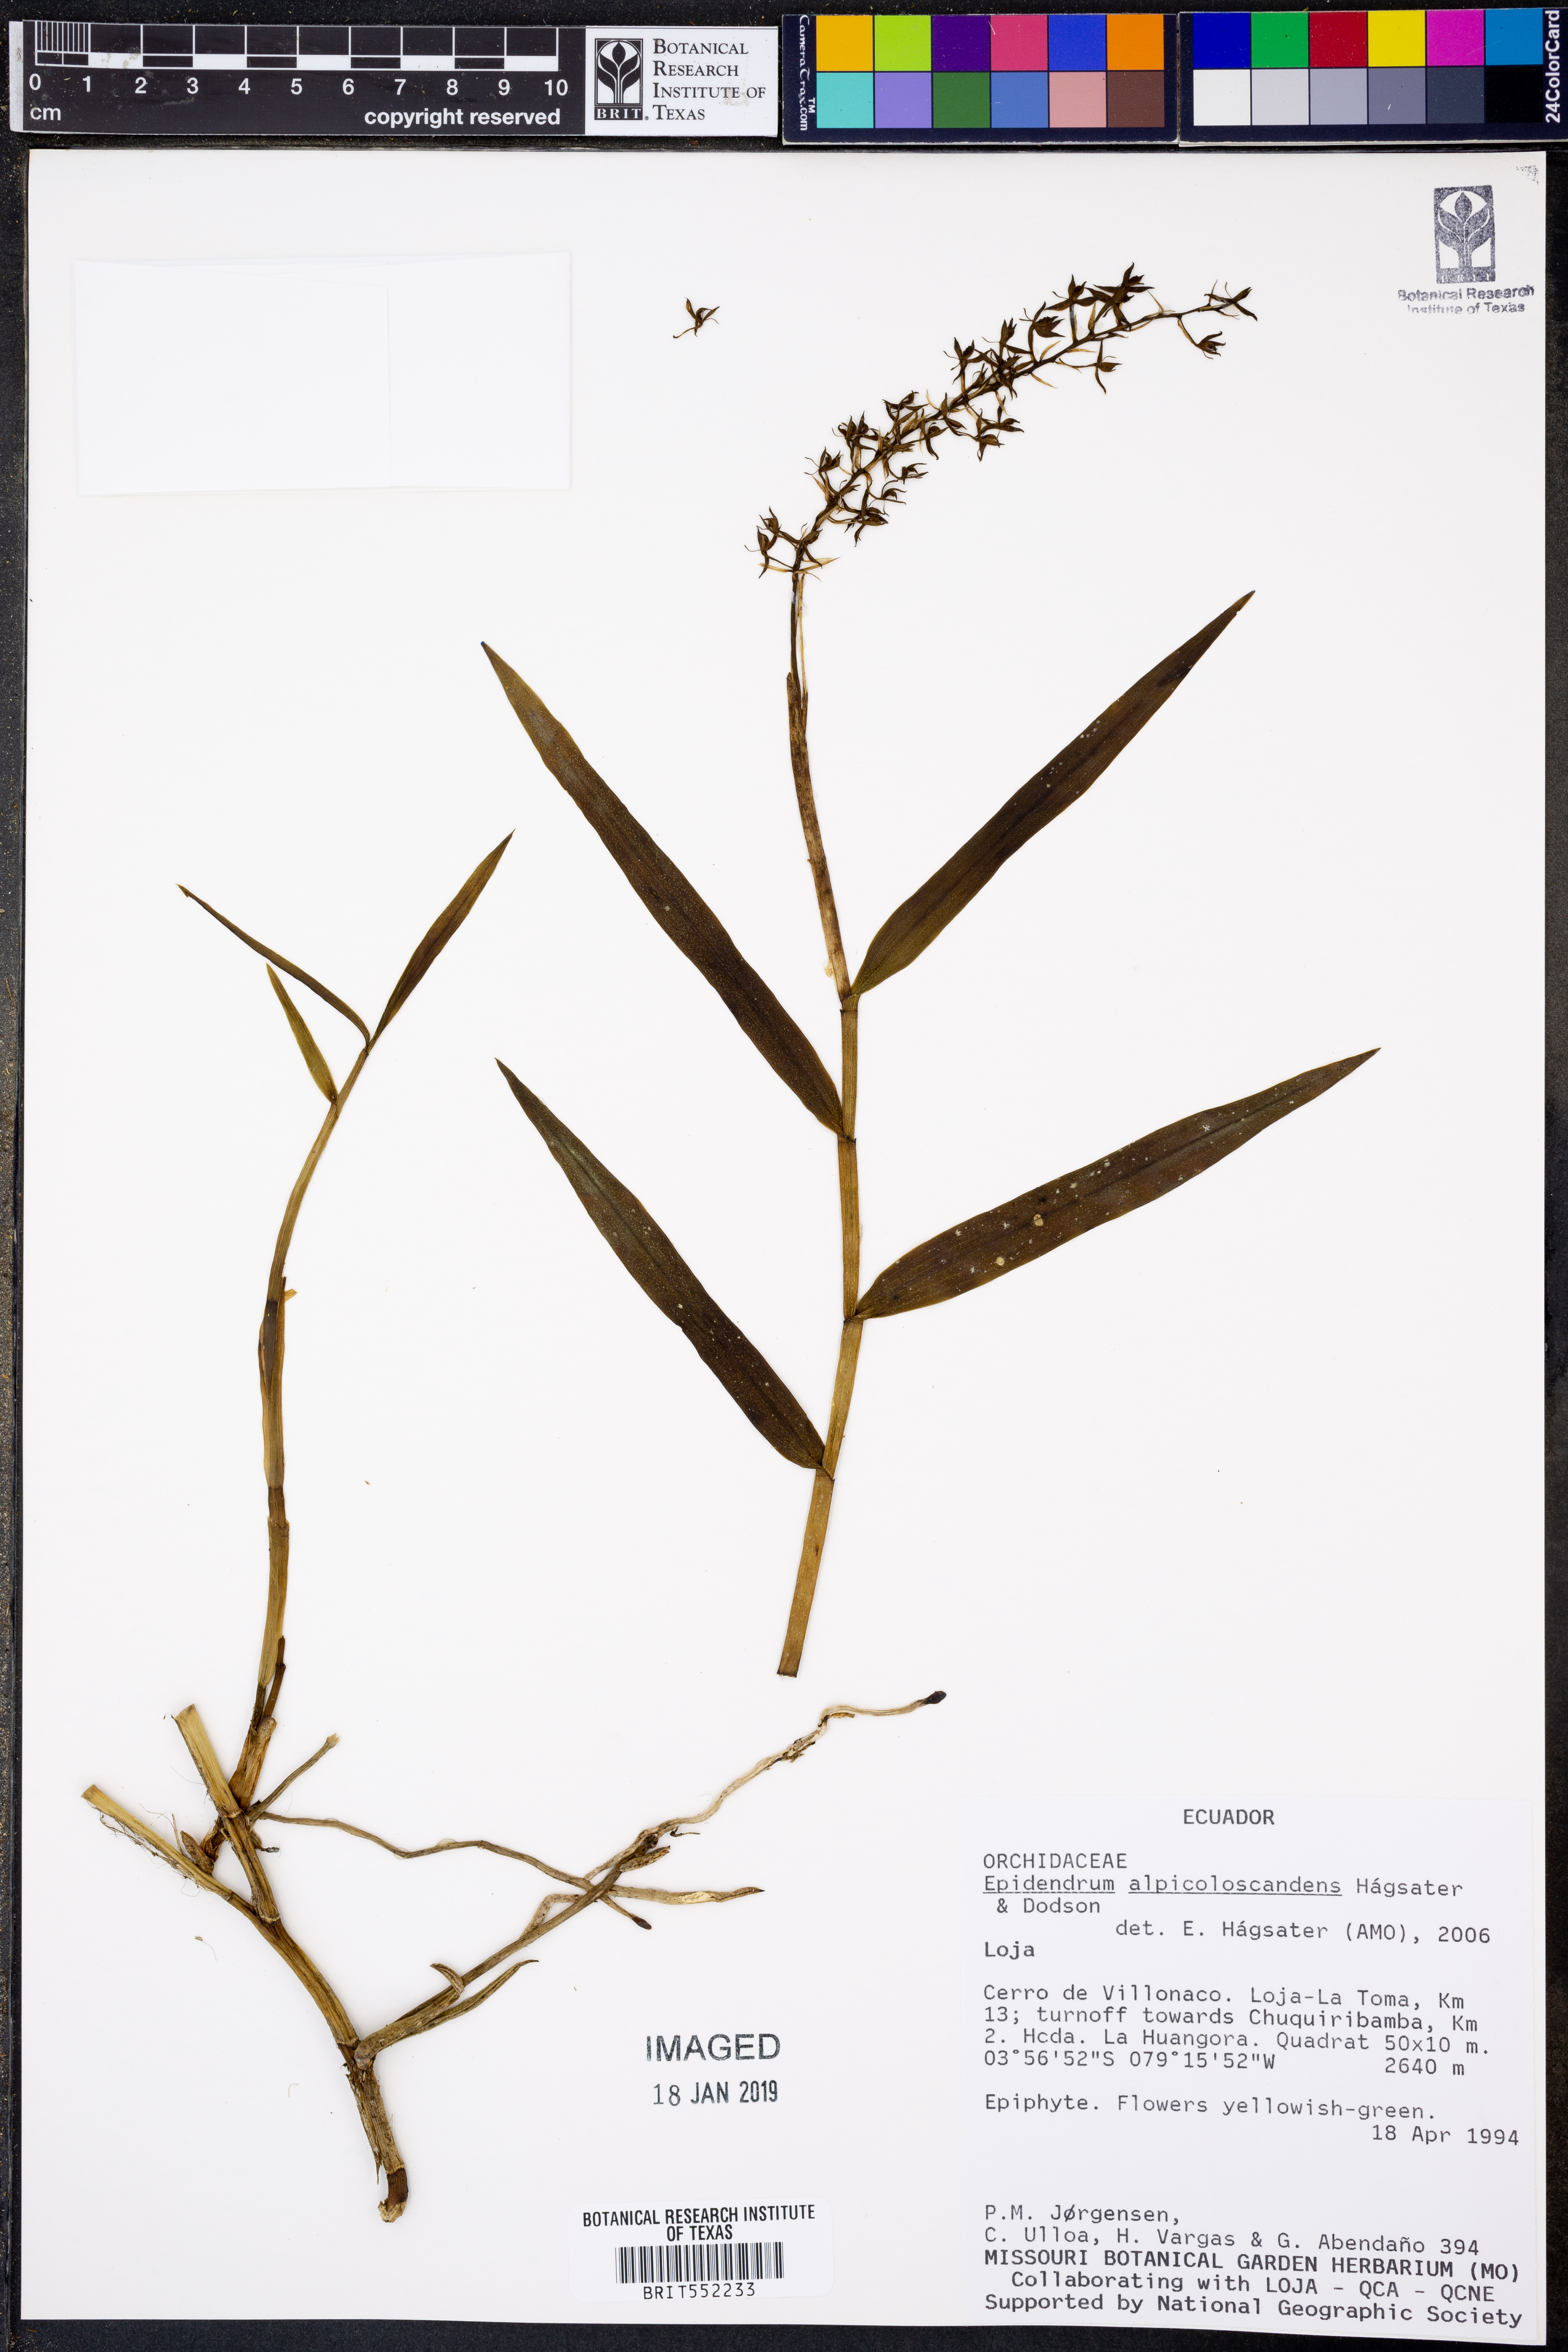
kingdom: Plantae
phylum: Tracheophyta
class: Liliopsida
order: Asparagales
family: Orchidaceae
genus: Epidendrum
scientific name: Epidendrum alpicoloscandens
